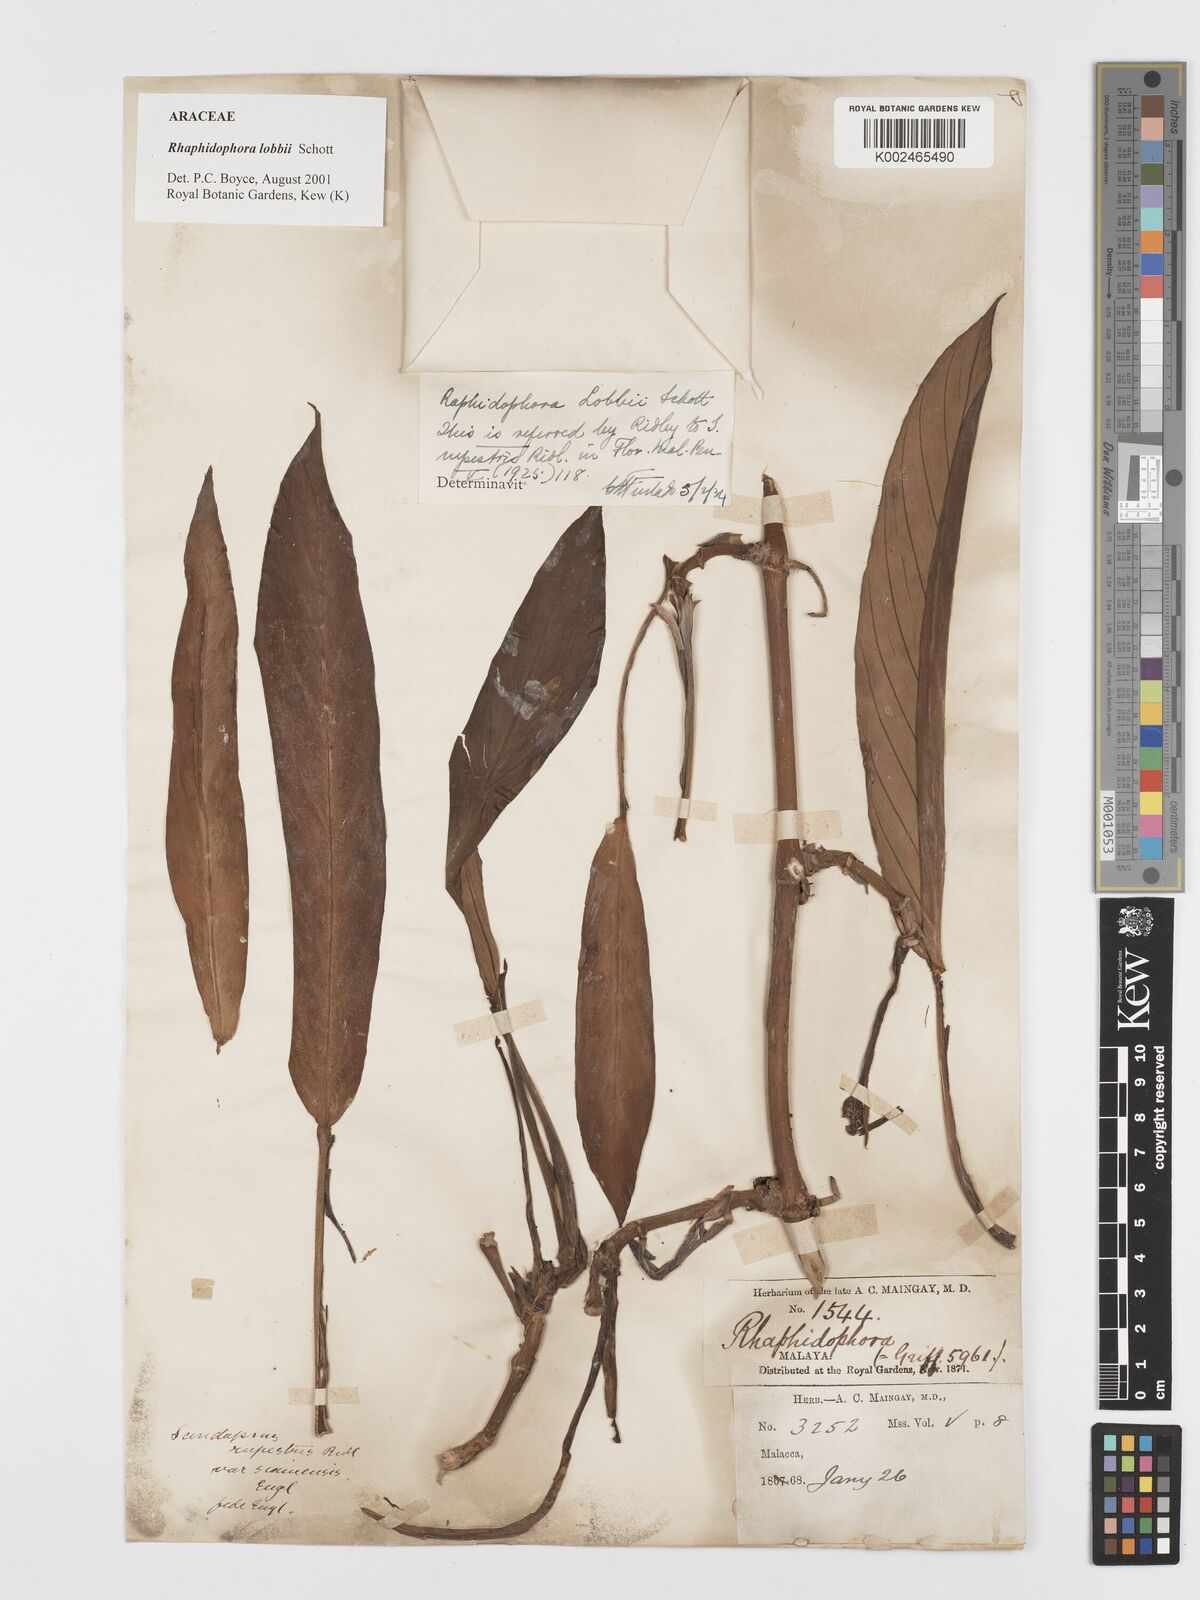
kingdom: Plantae
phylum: Tracheophyta
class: Liliopsida
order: Alismatales
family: Araceae
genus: Rhaphidophora
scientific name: Rhaphidophora lobbii
